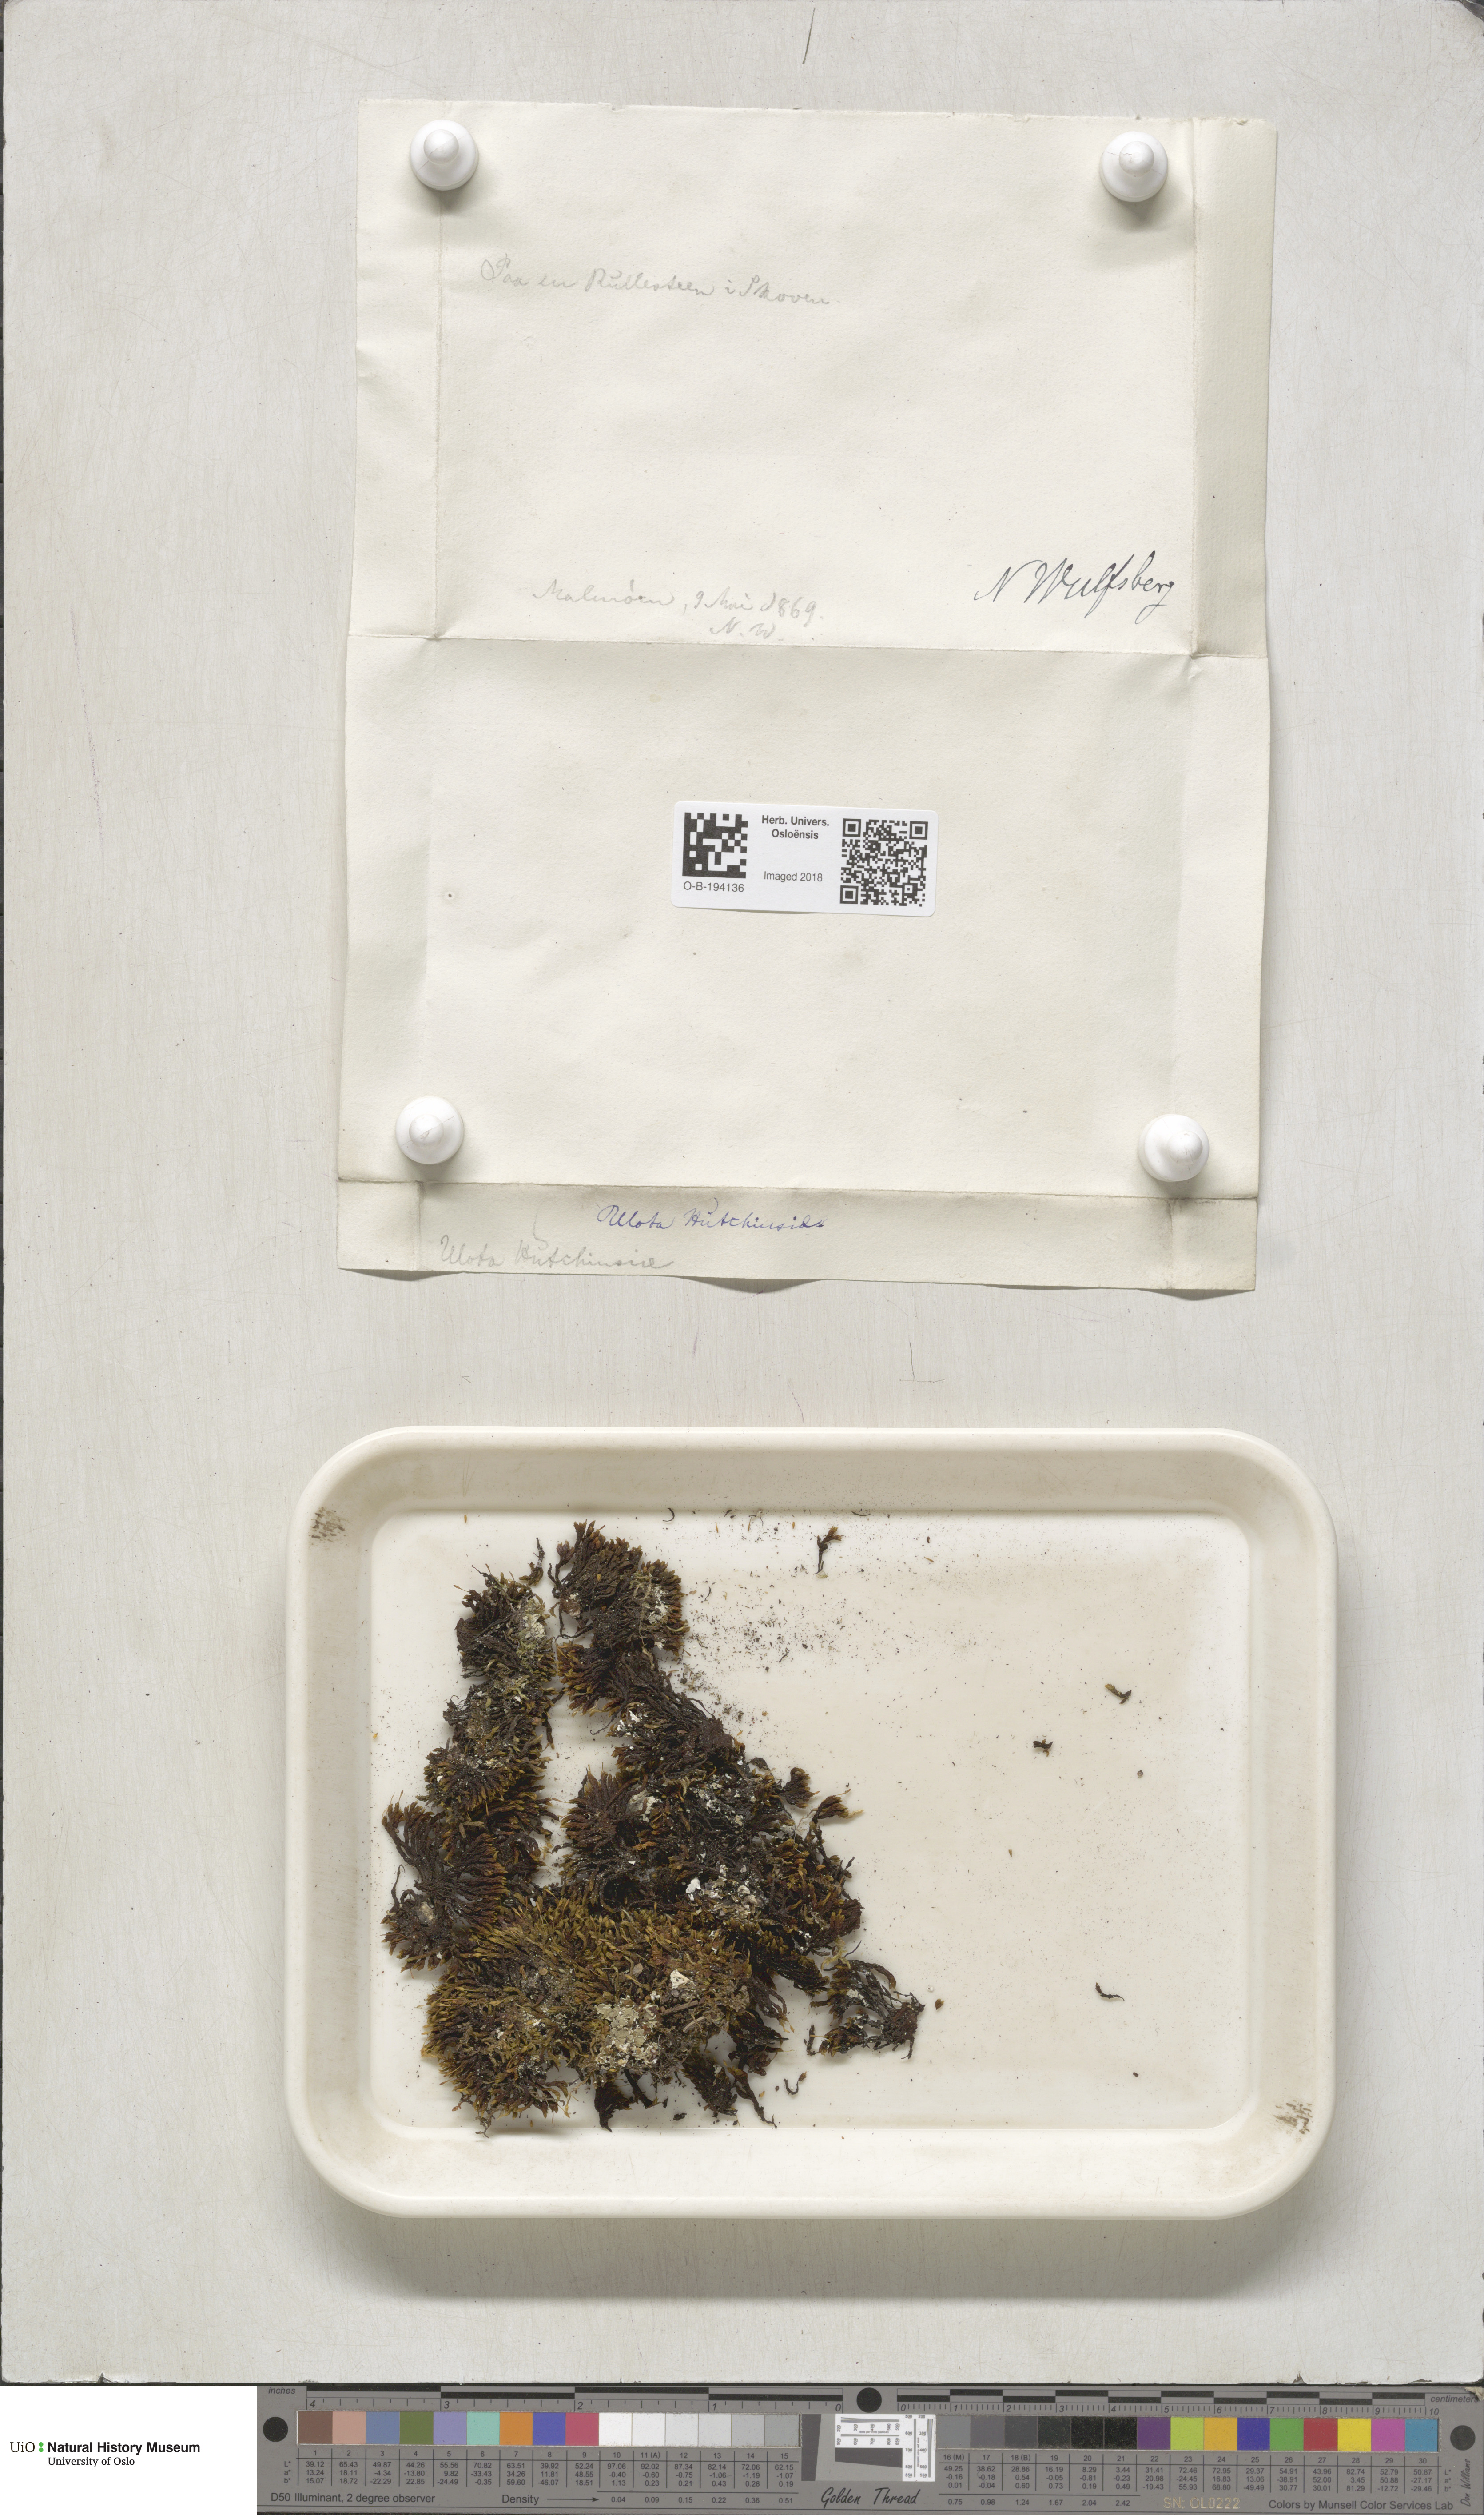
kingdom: Plantae
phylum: Bryophyta
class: Bryopsida
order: Orthotrichales
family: Orthotrichaceae
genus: Ulota
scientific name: Ulota hutchinsiae
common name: Hutchins' pincushion
